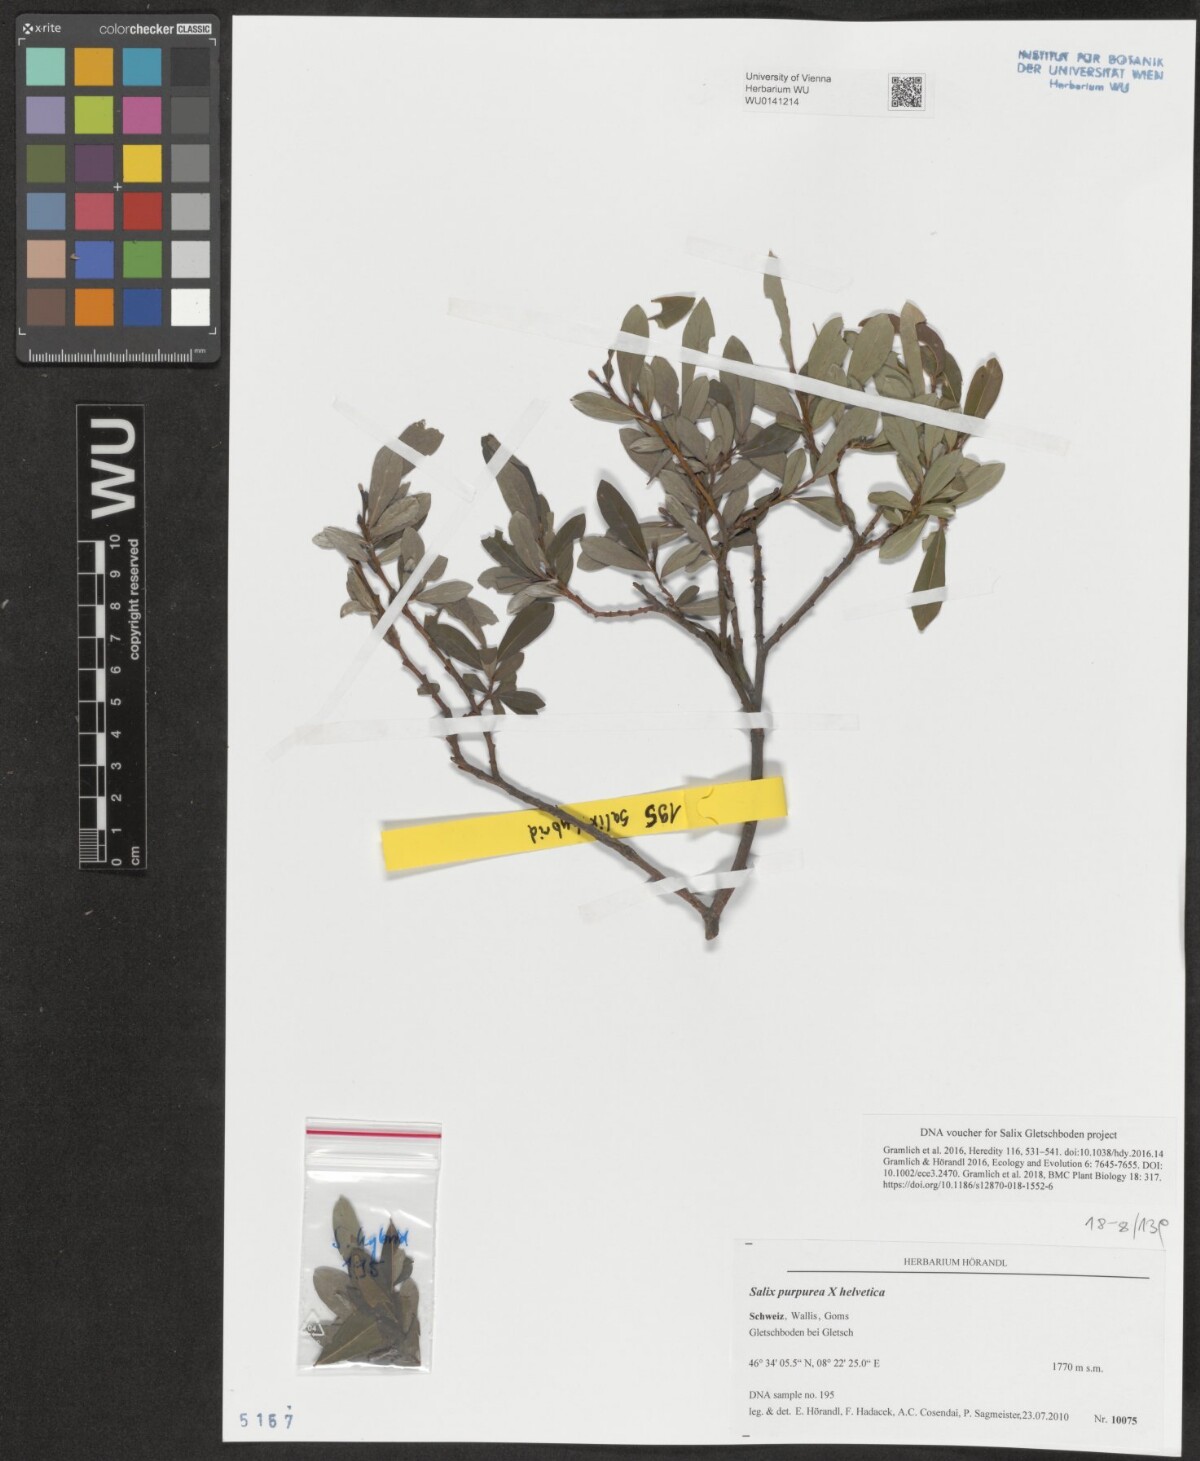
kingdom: Plantae
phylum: Tracheophyta
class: Magnoliopsida
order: Malpighiales
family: Salicaceae
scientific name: Salicaceae
